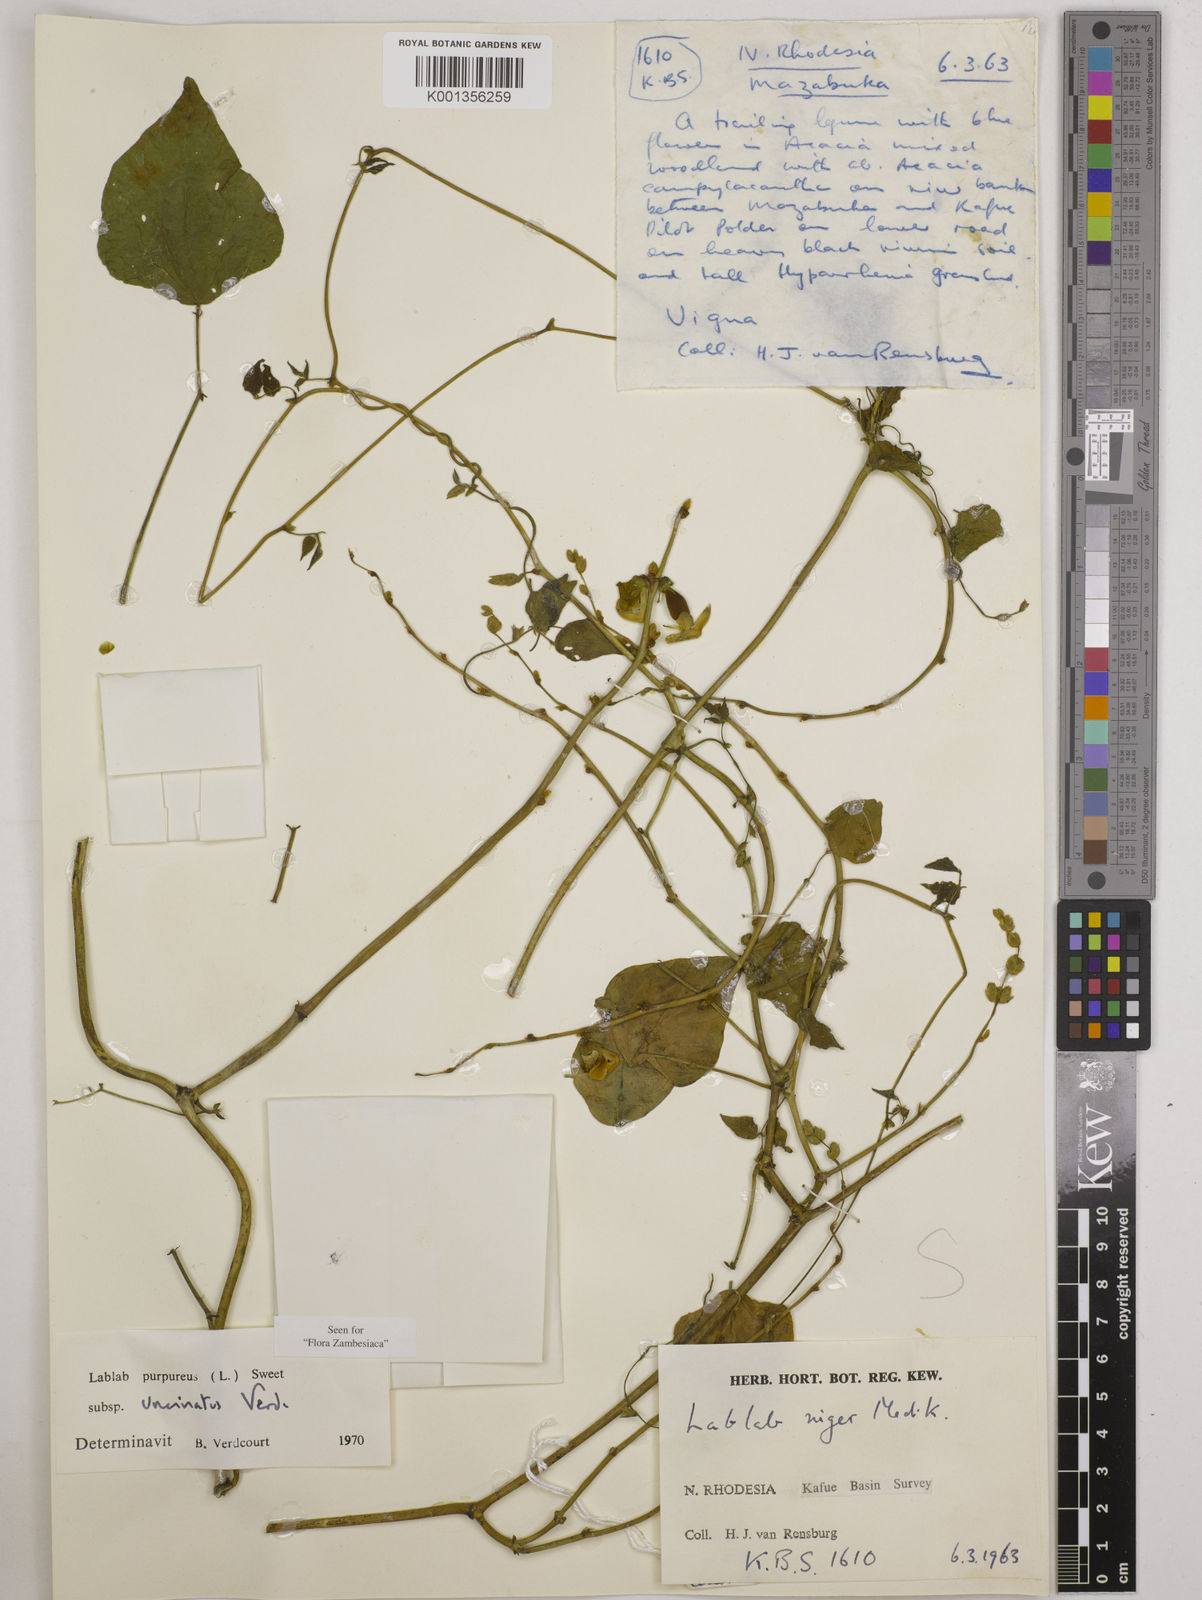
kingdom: Plantae
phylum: Tracheophyta
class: Magnoliopsida
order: Fabales
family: Fabaceae
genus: Lablab
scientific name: Lablab purpureus
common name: Lablab-bean
